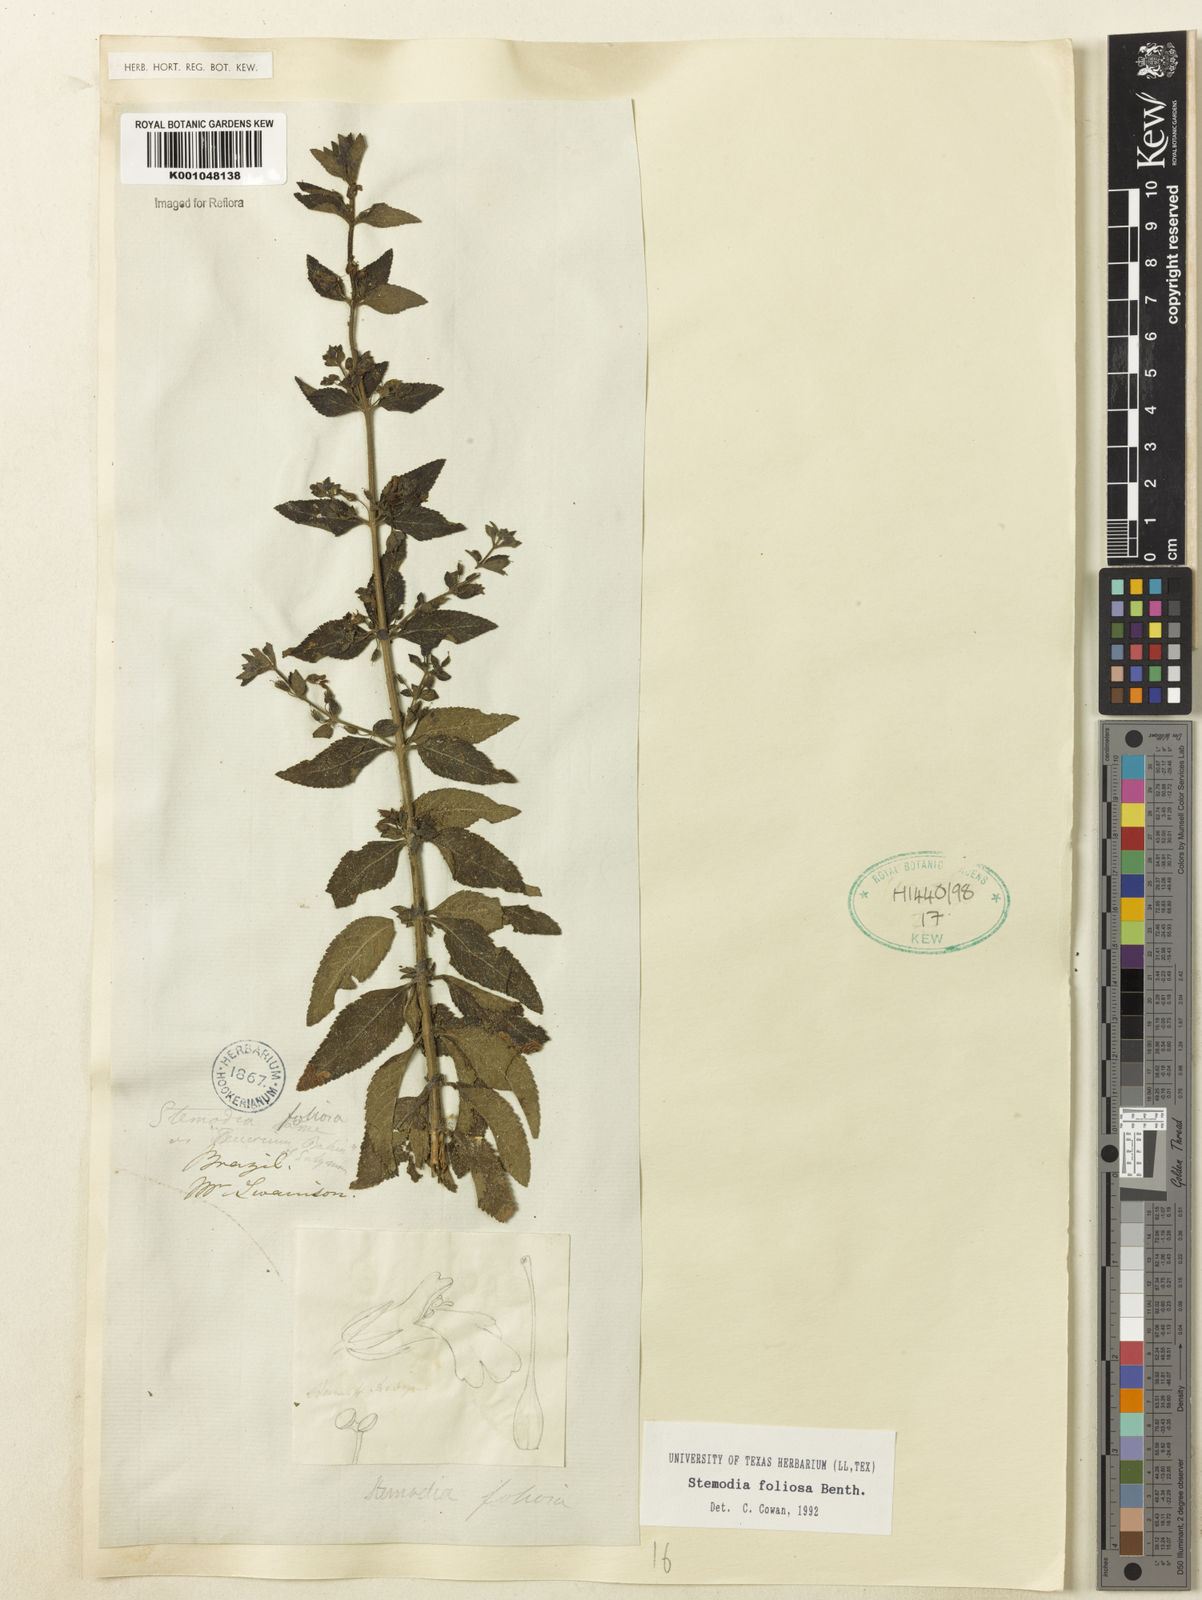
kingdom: Plantae
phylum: Tracheophyta
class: Magnoliopsida
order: Lamiales
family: Plantaginaceae
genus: Stemodia
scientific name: Stemodia foliosa
